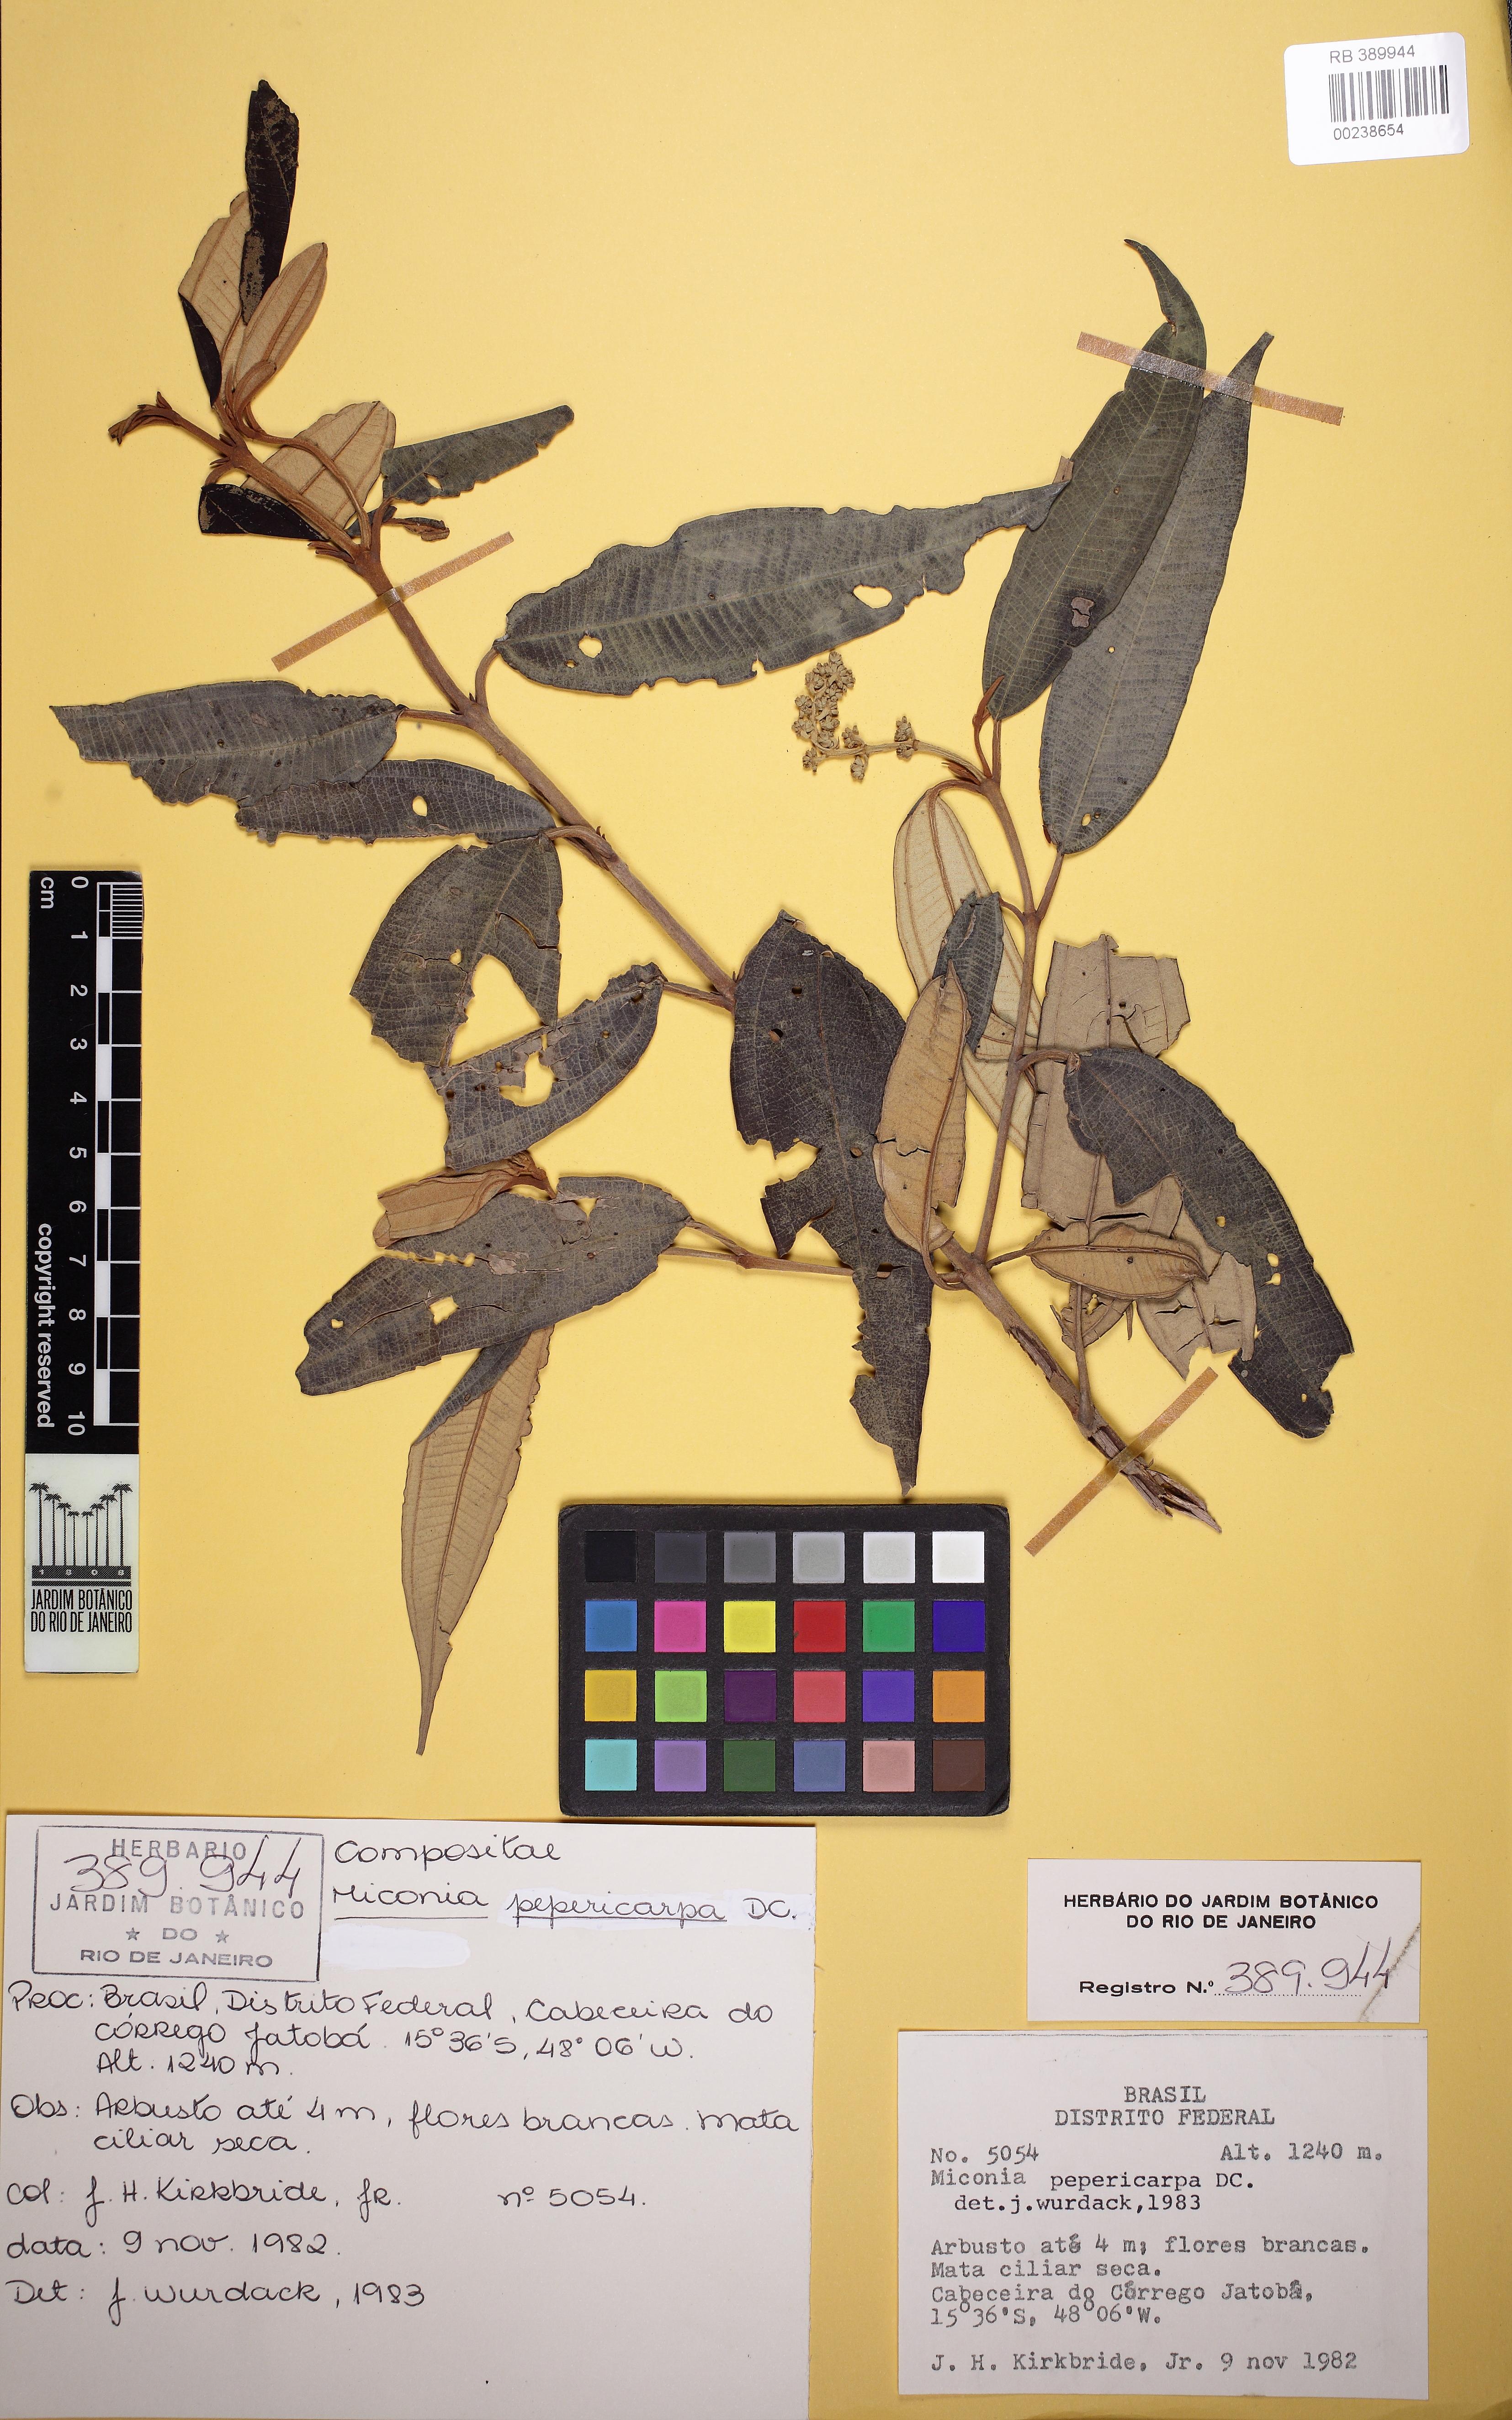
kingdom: Plantae
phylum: Tracheophyta
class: Magnoliopsida
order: Myrtales
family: Melastomataceae
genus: Miconia
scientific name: Miconia pepericarpa
